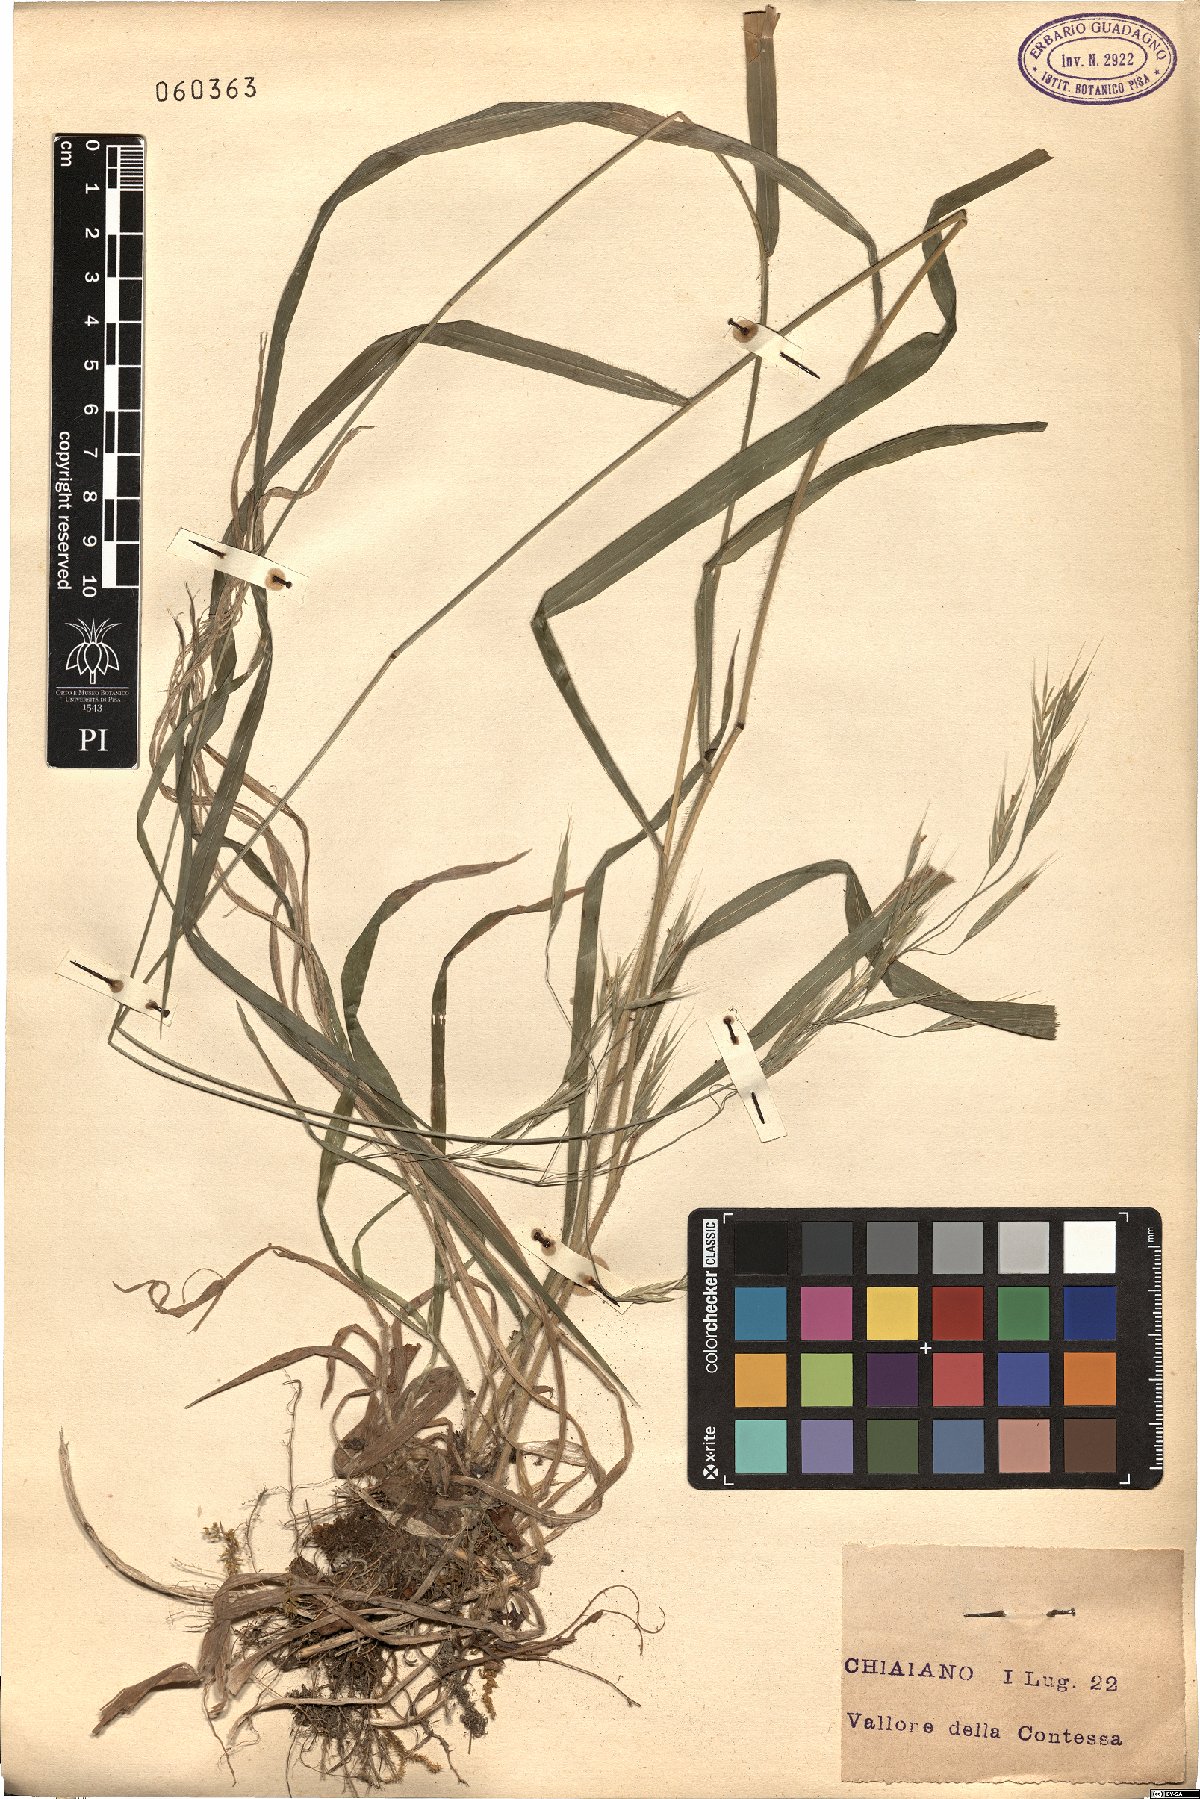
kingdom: Plantae
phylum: Tracheophyta
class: Liliopsida
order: Poales
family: Poaceae
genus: Bromus
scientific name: Bromus ramosus
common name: Hairy brome
